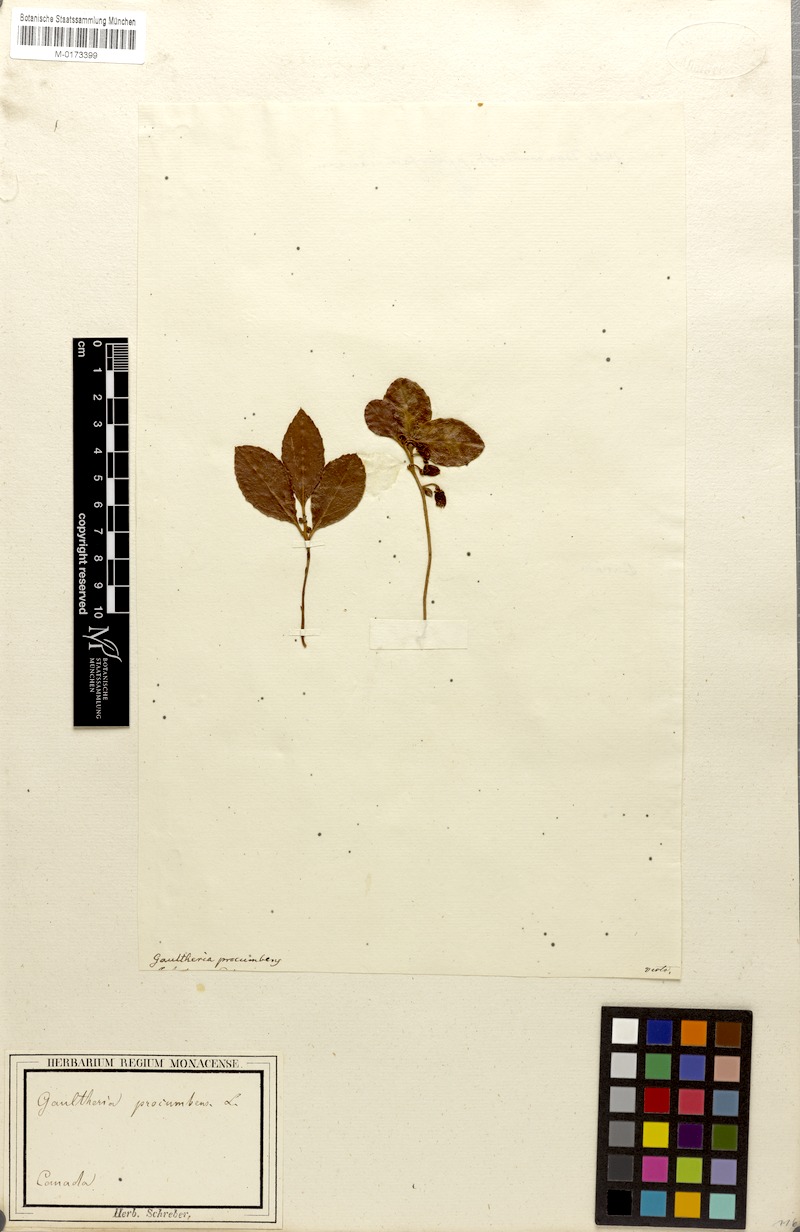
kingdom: Plantae
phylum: Tracheophyta
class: Magnoliopsida
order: Ericales
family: Ericaceae
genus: Gaultheria
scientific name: Gaultheria procumbens
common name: Checkerberry
